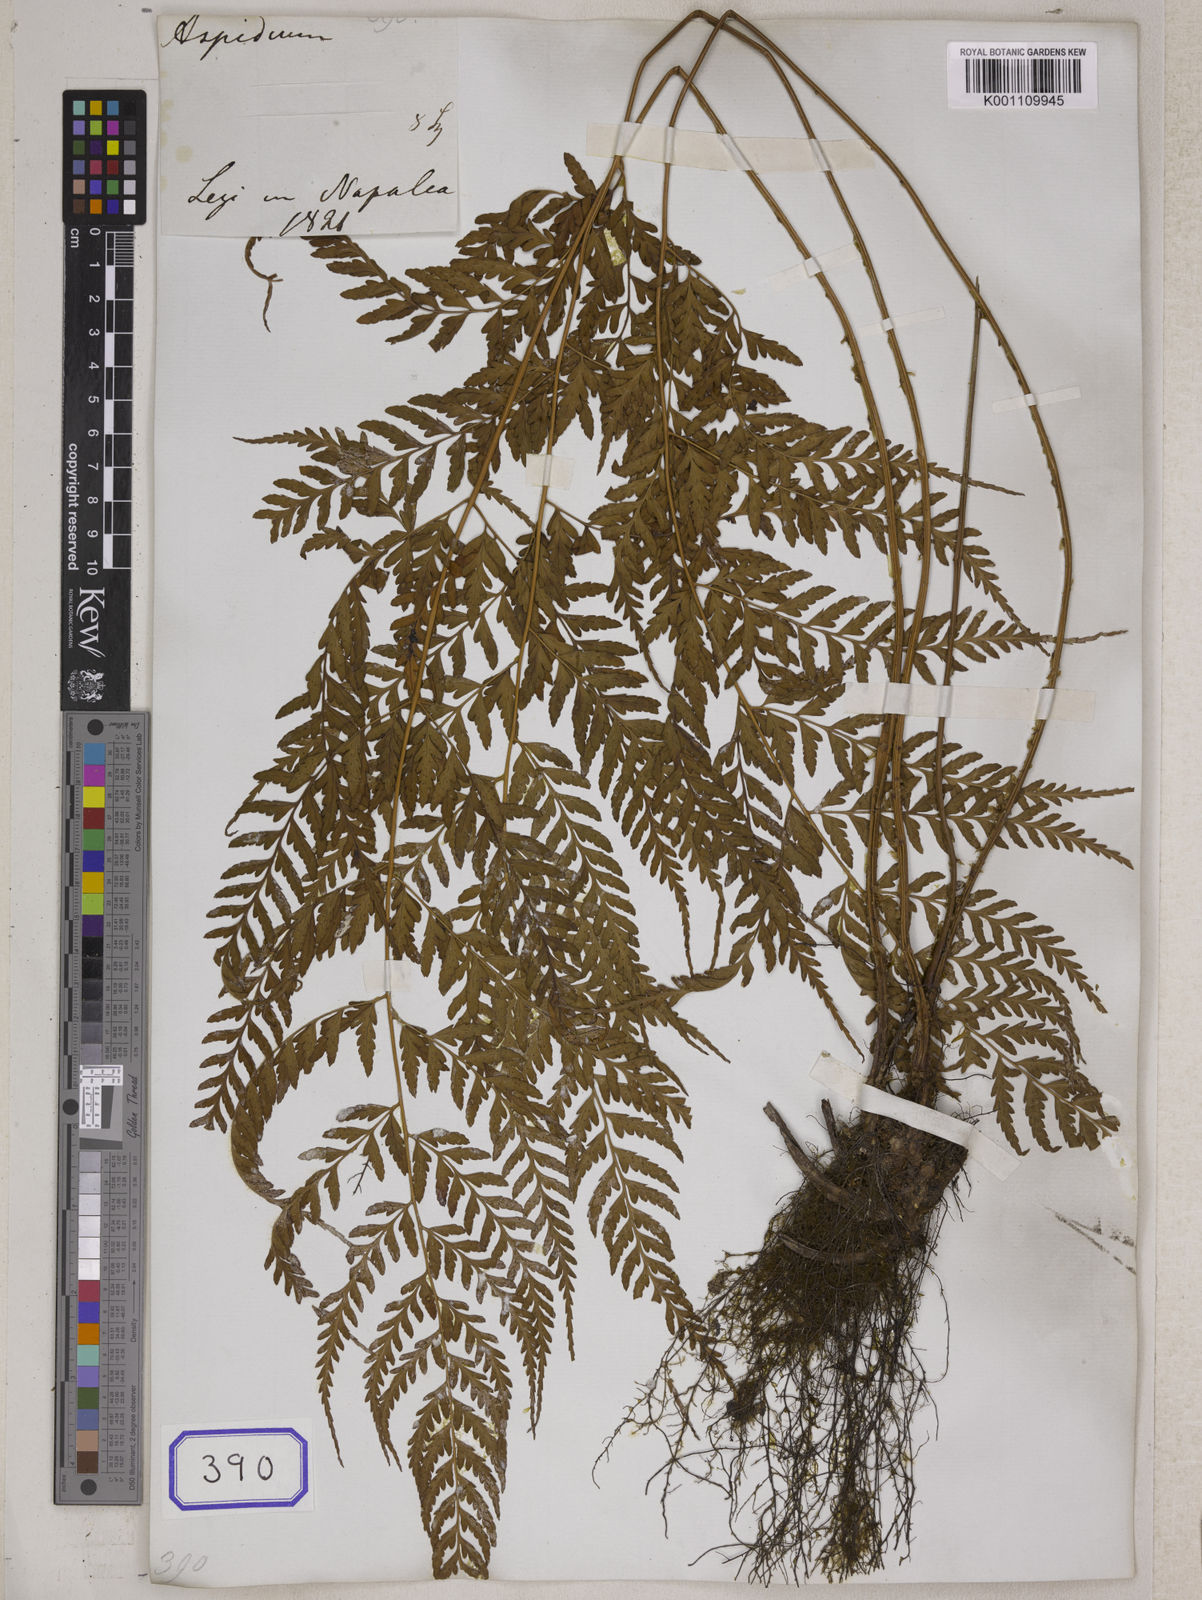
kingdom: Plantae
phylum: Tracheophyta
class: Polypodiopsida
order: Polypodiales
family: Dryopteridaceae
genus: Dryopteris
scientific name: Dryopteris sparsa
